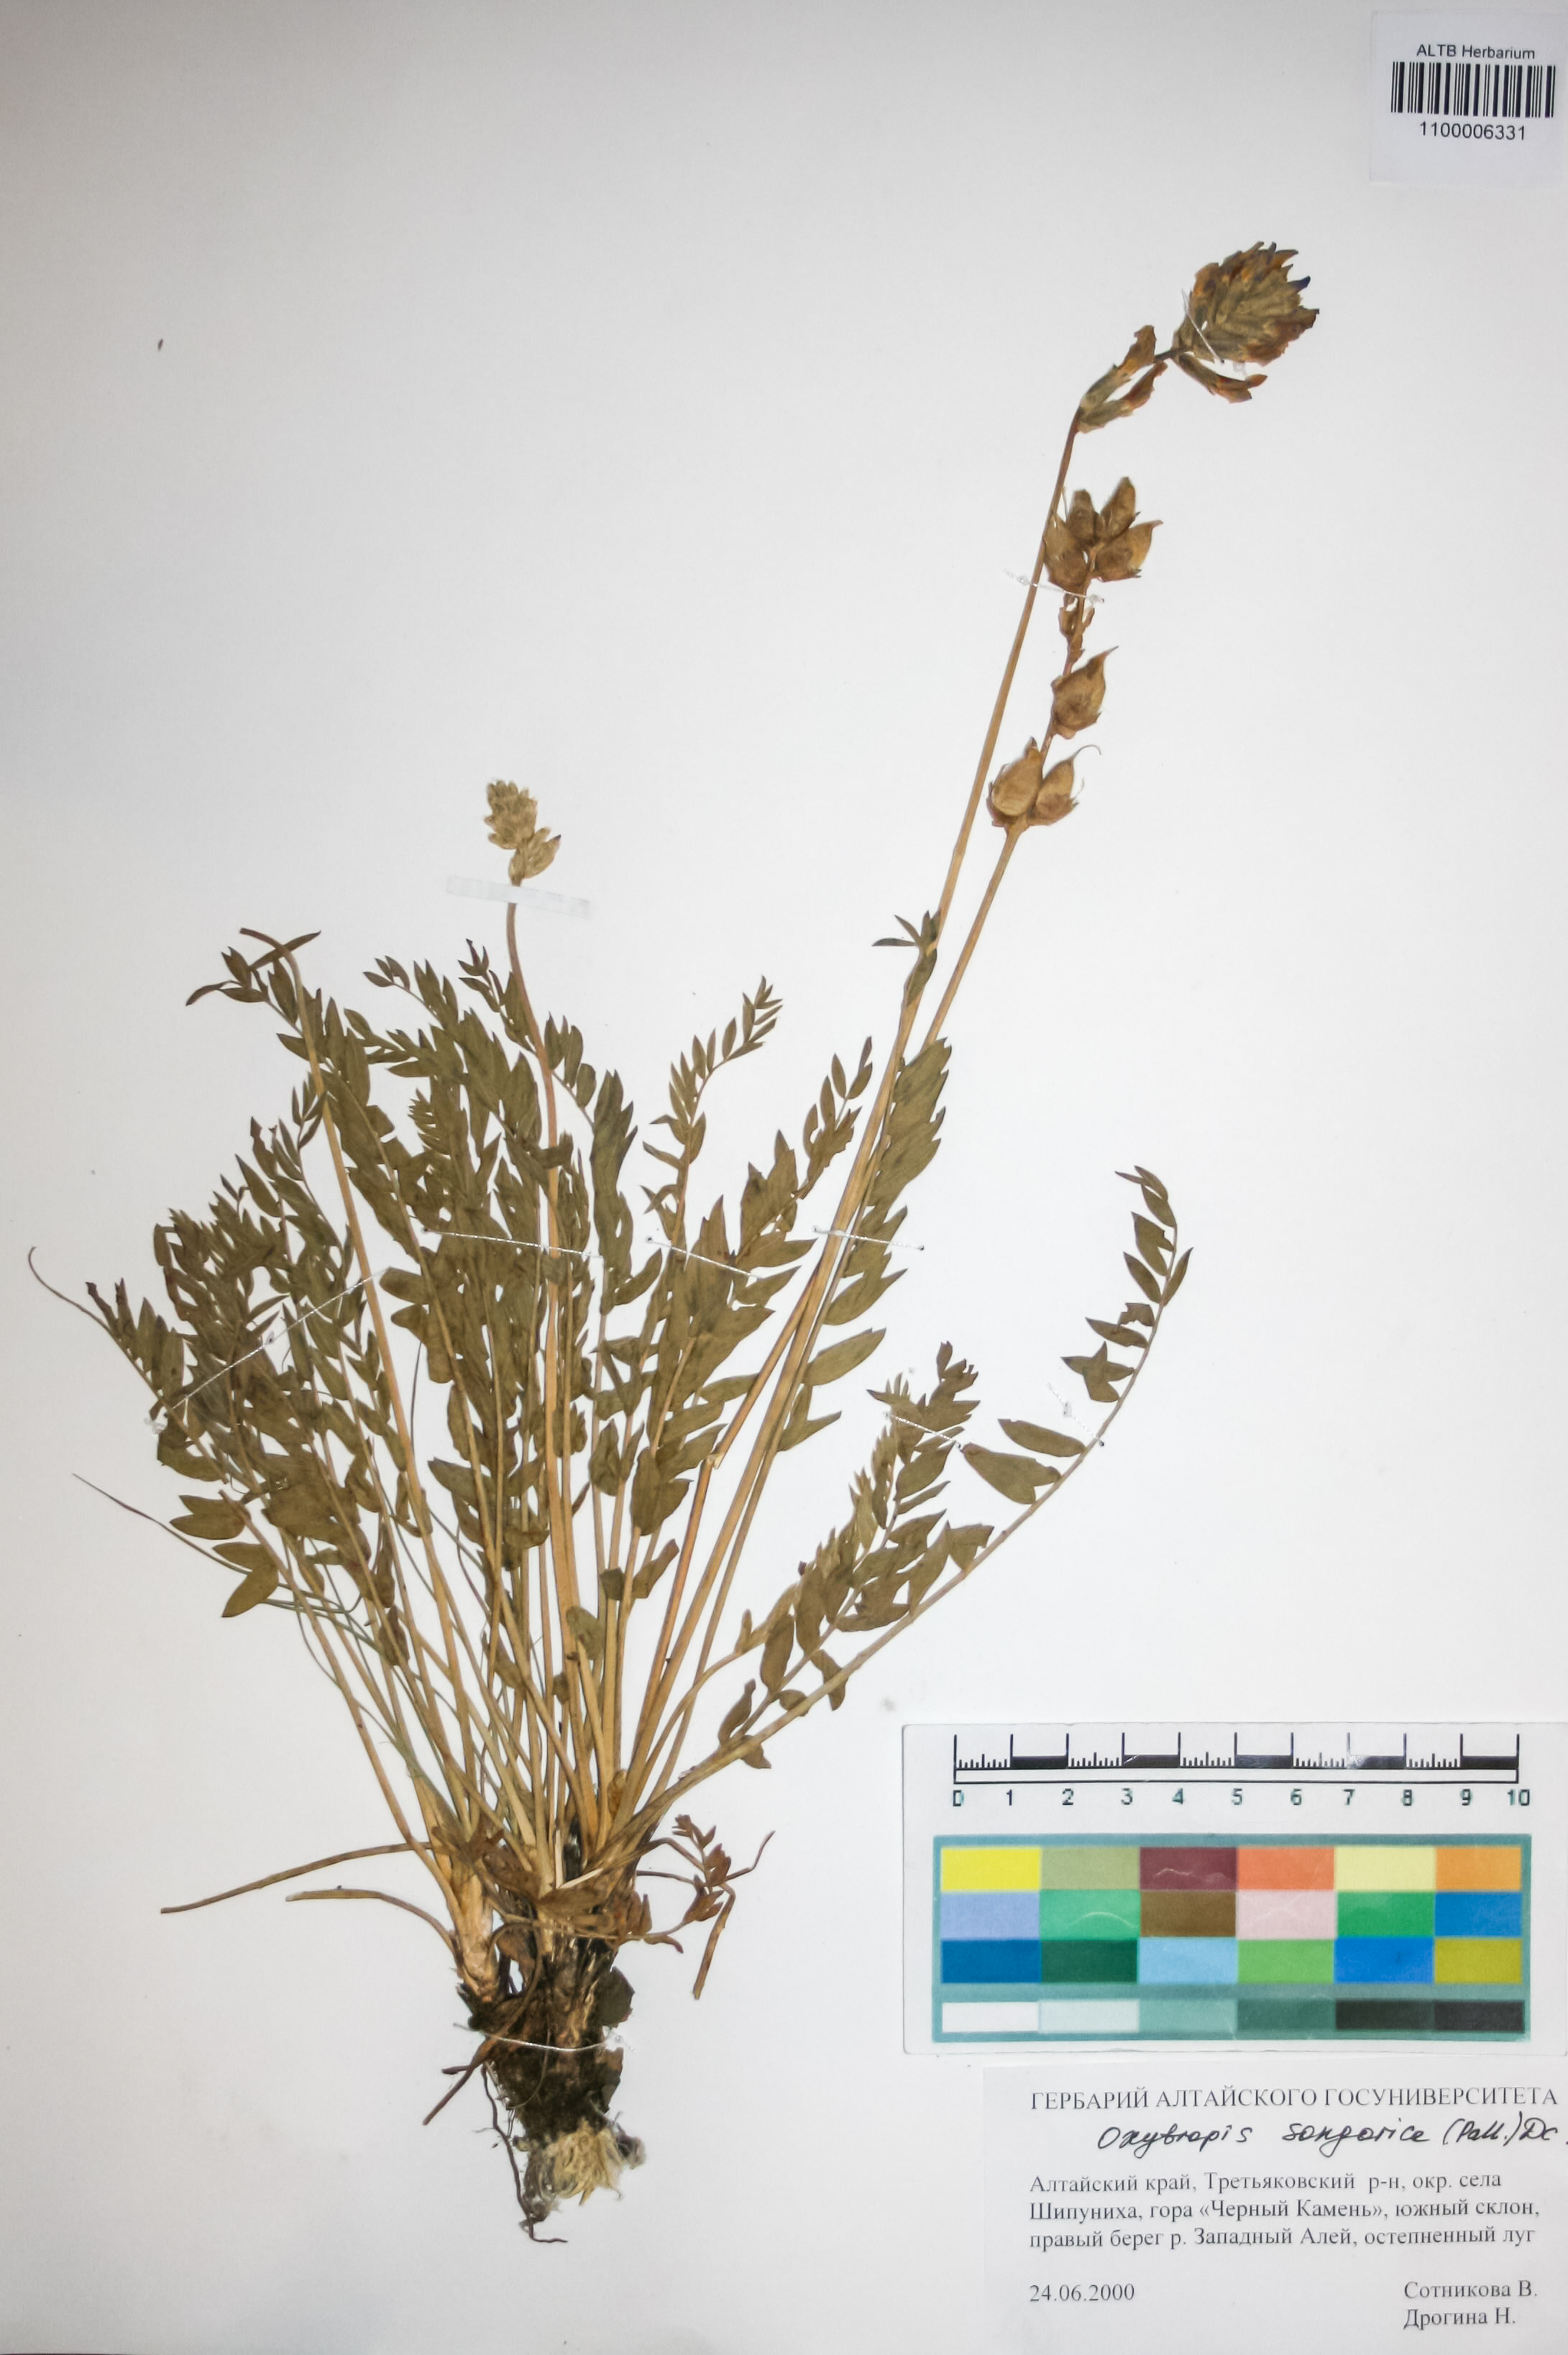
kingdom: Plantae
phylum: Tracheophyta
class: Magnoliopsida
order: Fabales
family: Fabaceae
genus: Oxytropis
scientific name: Oxytropis songorica
